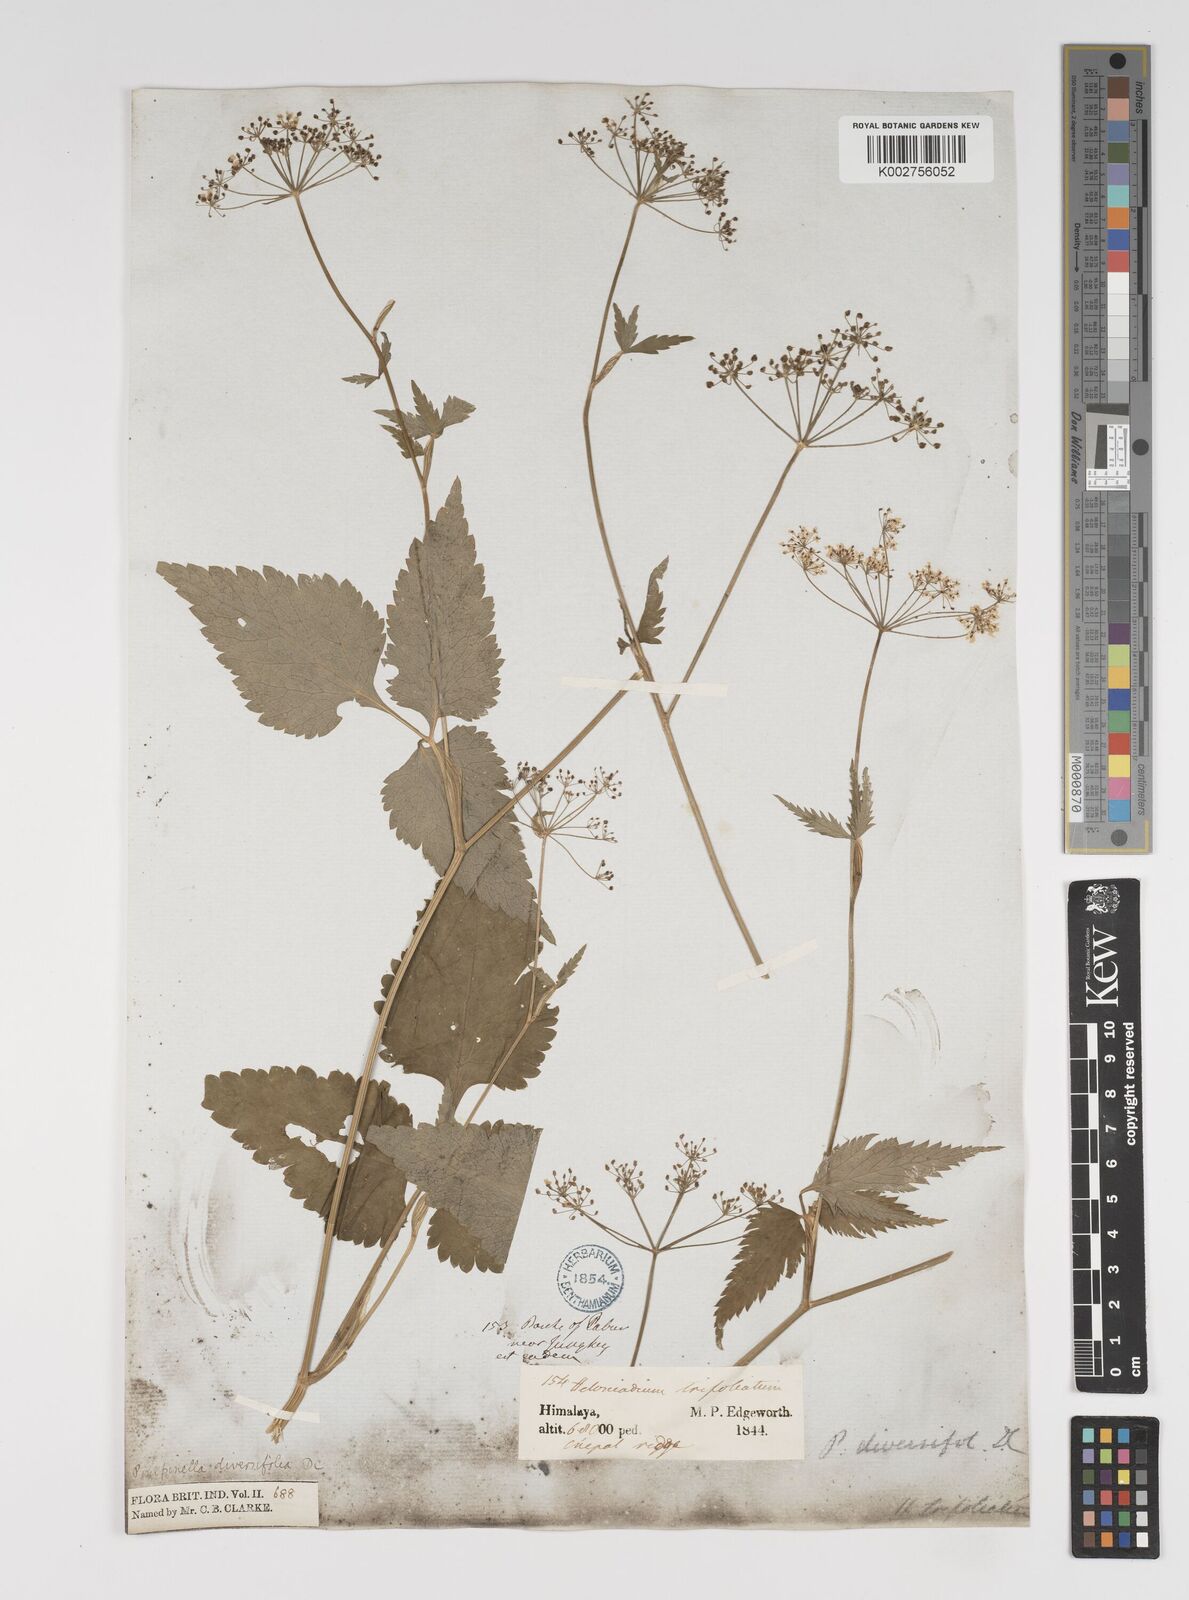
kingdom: Plantae
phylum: Tracheophyta
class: Magnoliopsida
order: Apiales
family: Apiaceae
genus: Pimpinella
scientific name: Pimpinella diversifolia
